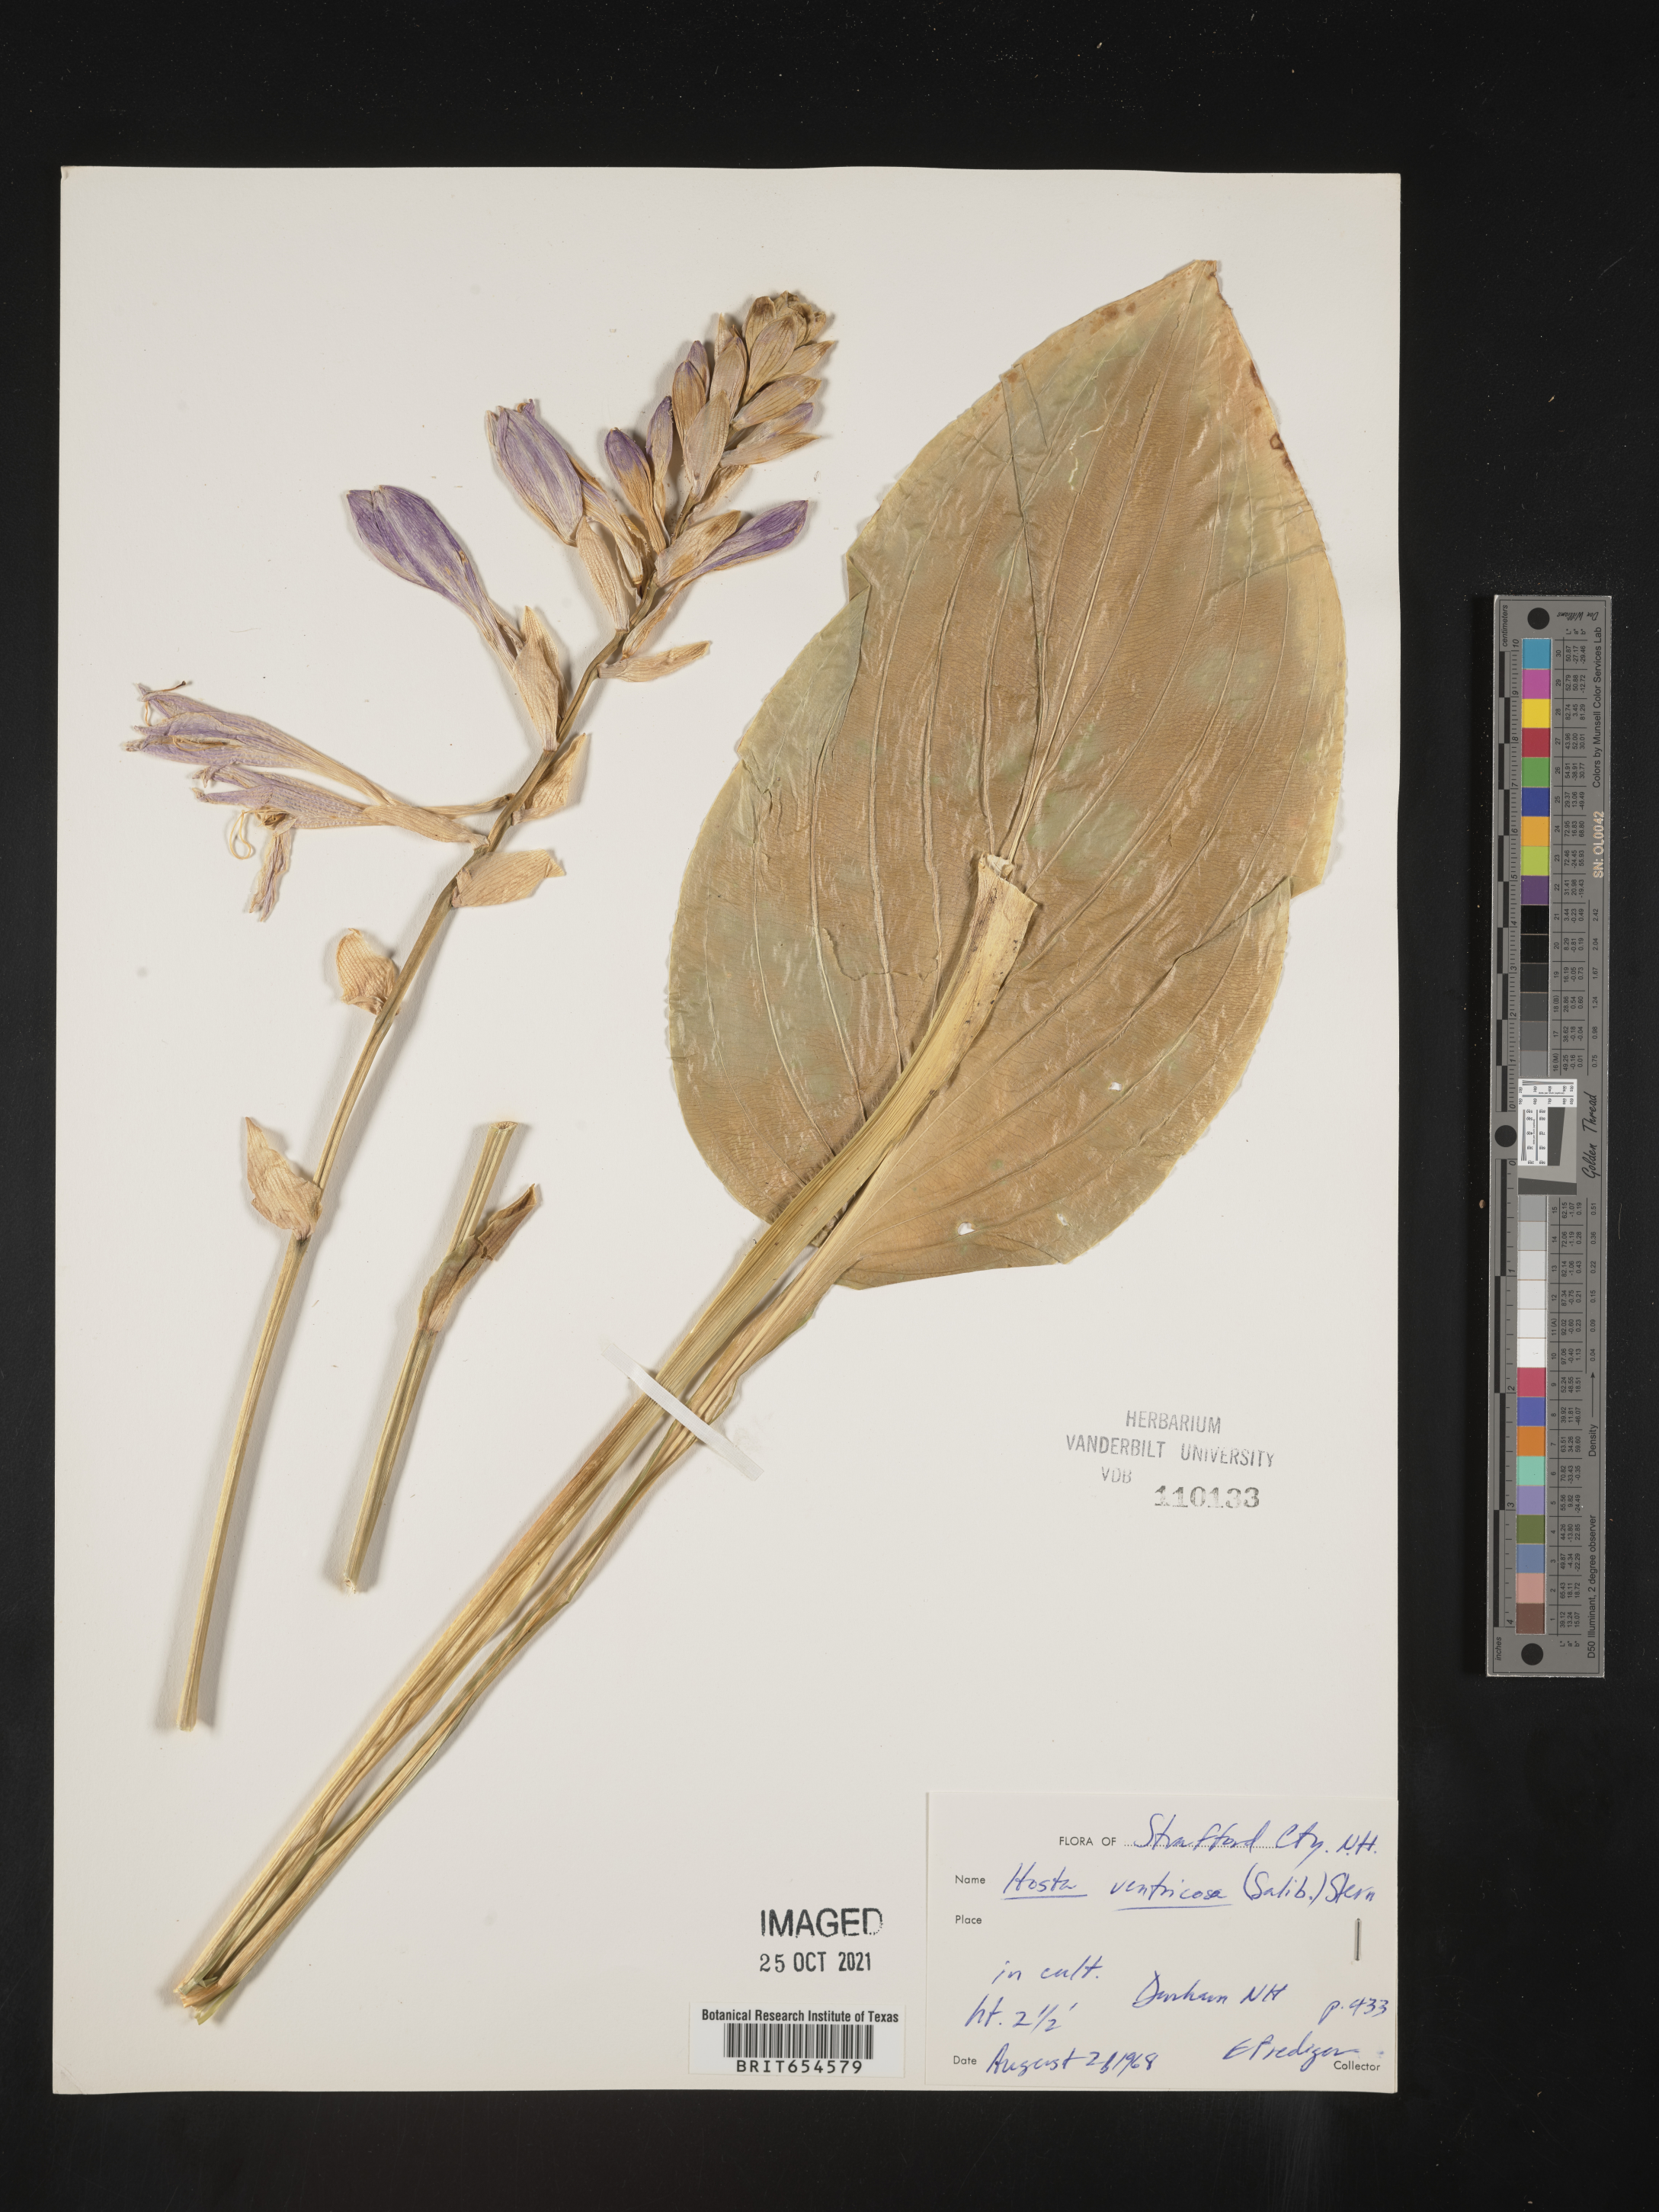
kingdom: Plantae
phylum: Tracheophyta
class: Liliopsida
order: Asparagales
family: Asparagaceae
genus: Hosta
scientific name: Hosta ventricosa
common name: Blue plantain-lily
